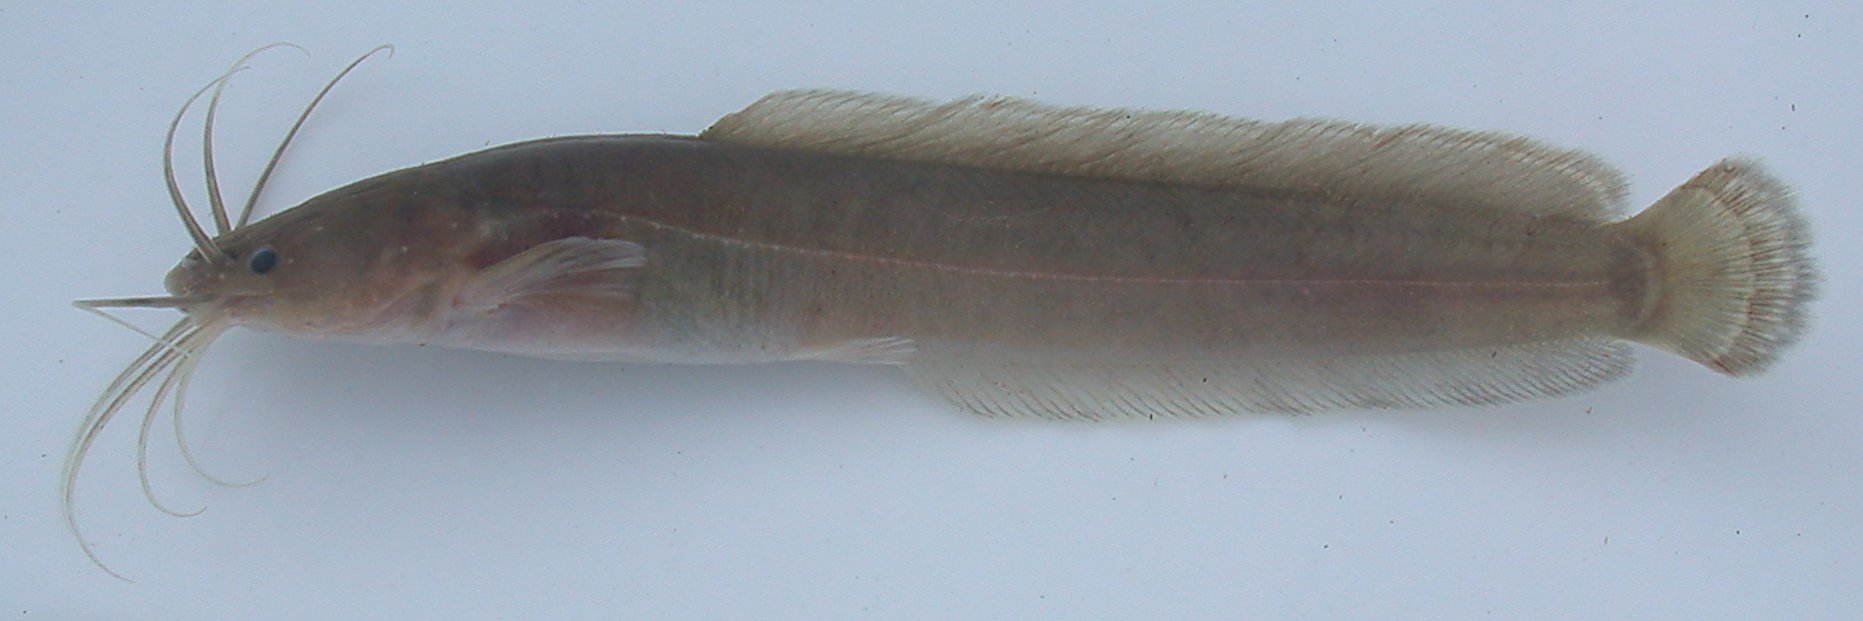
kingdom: Animalia
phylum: Chordata
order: Siluriformes
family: Clariidae
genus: Clarias
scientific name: Clarias liocephalus
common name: Smooth-head catfish
